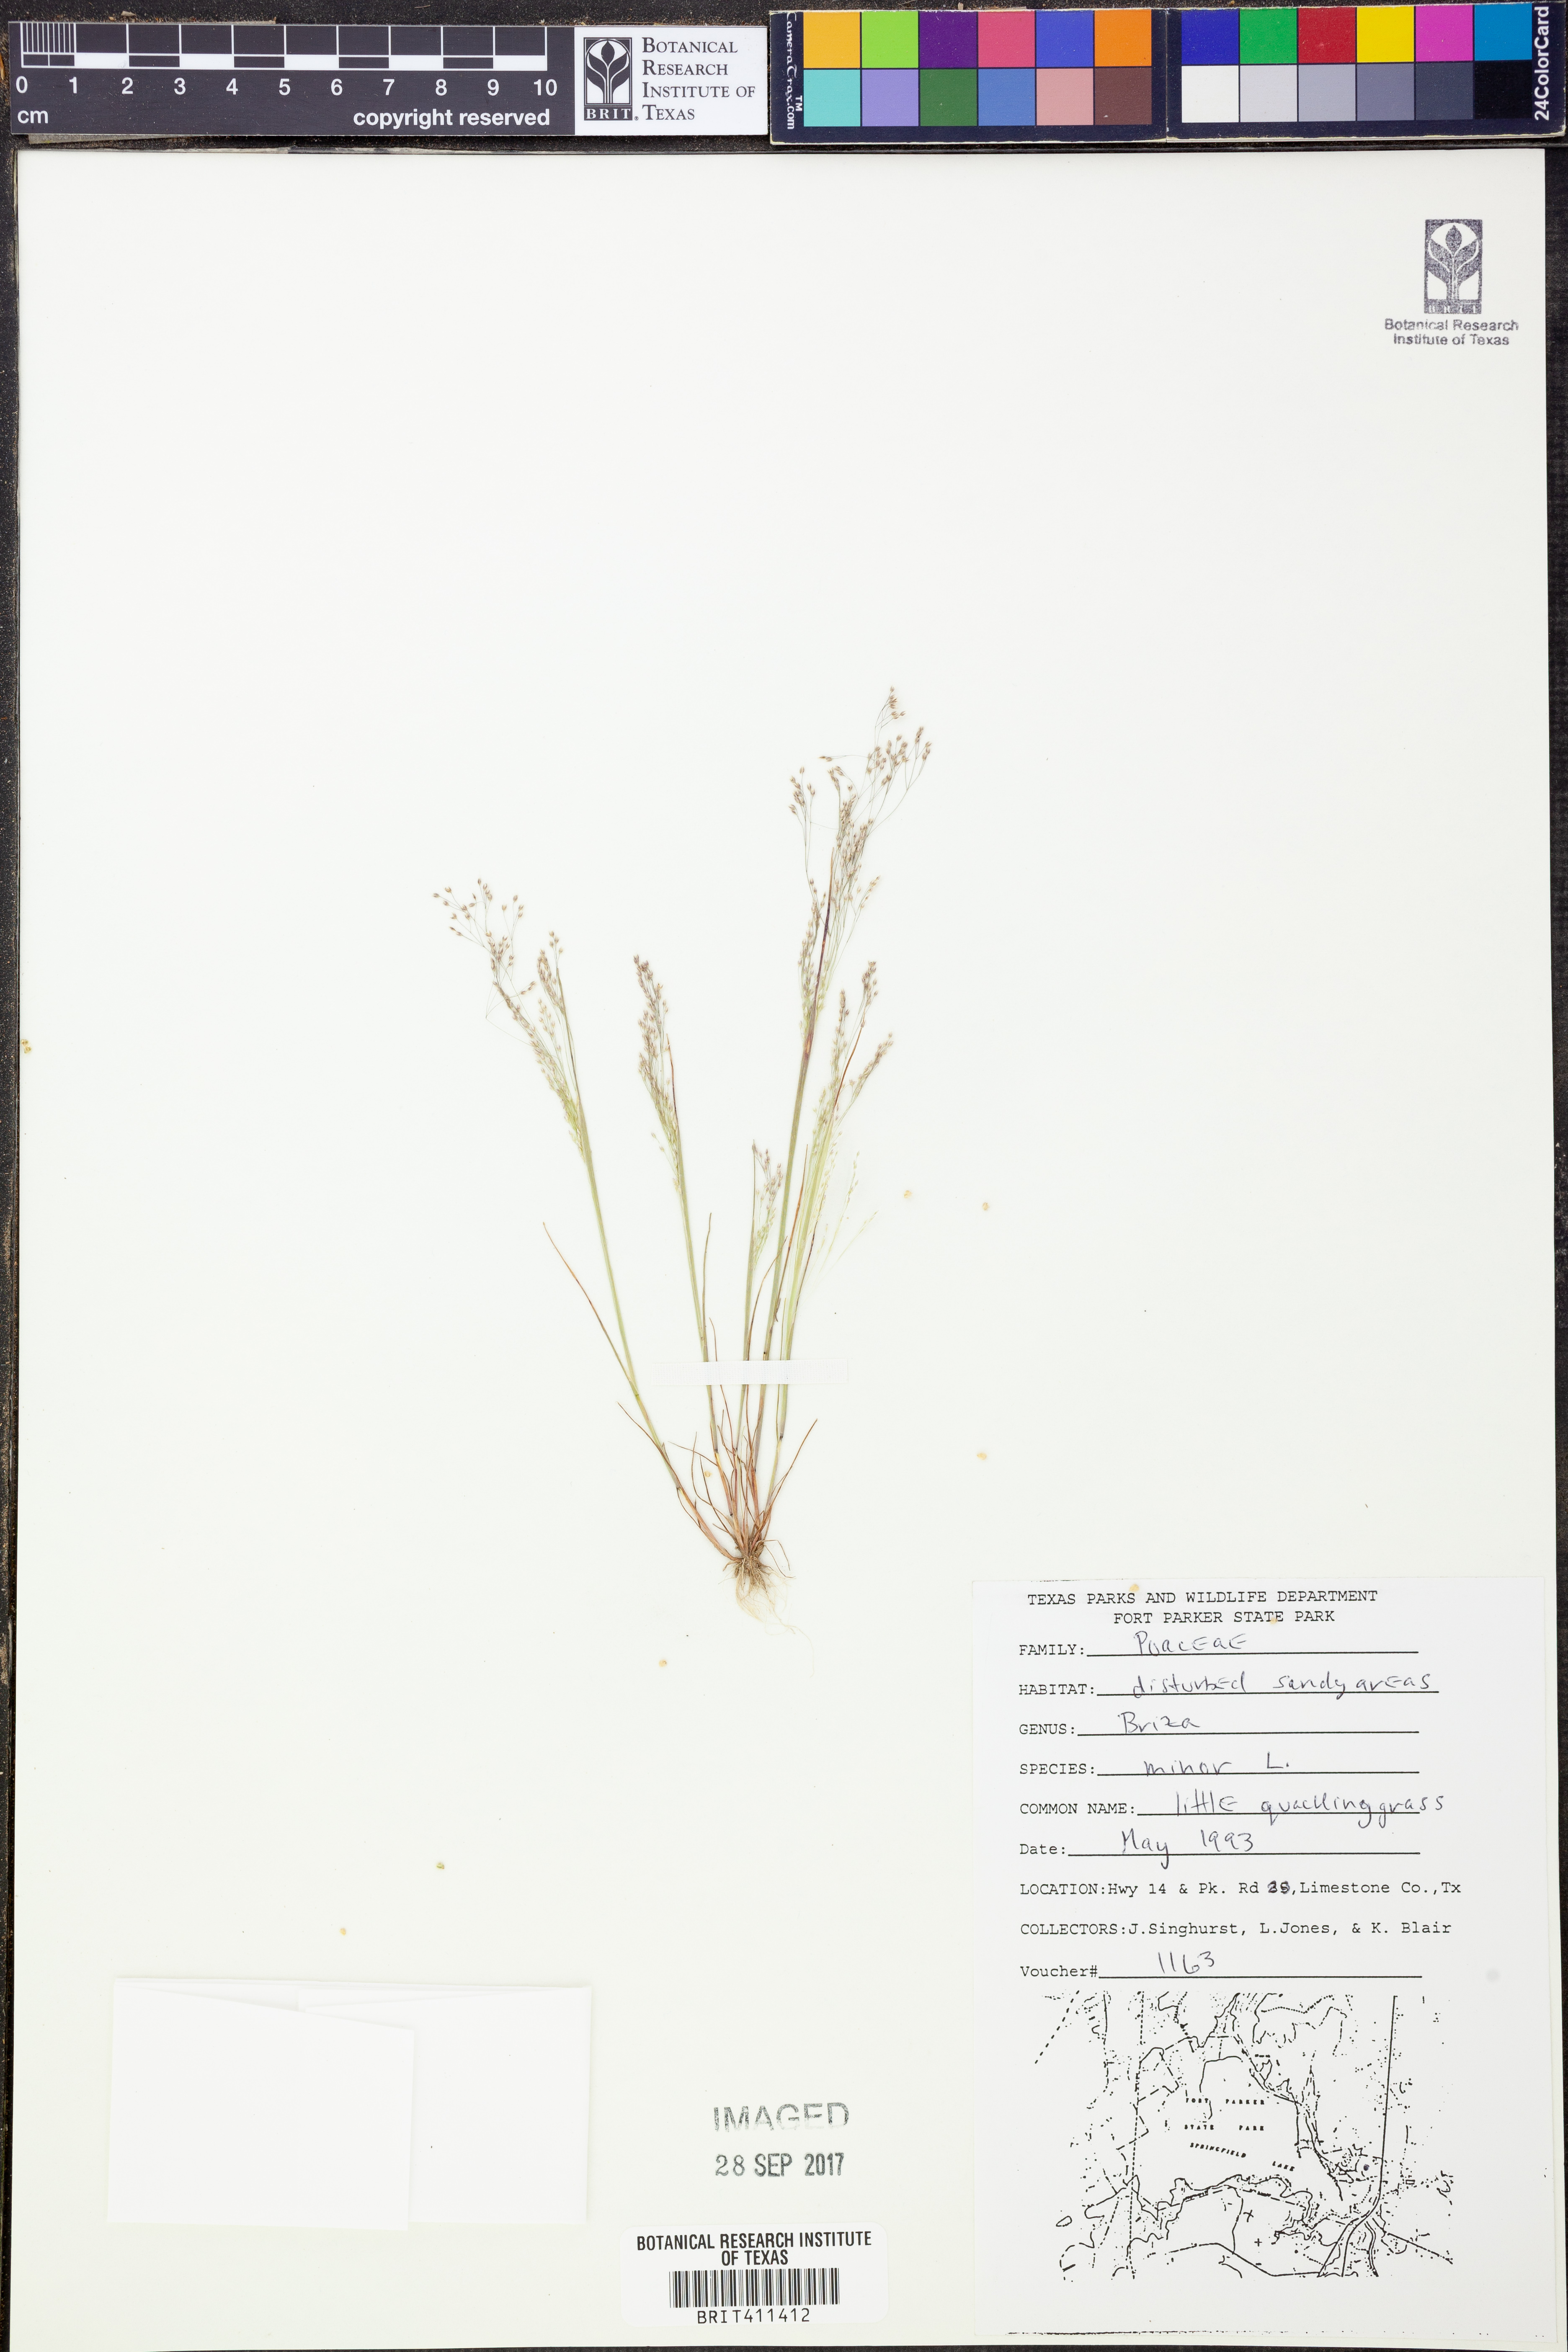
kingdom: Plantae
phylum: Tracheophyta
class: Liliopsida
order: Poales
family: Poaceae
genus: Briza
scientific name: Briza minor
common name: Lesser quaking-grass
